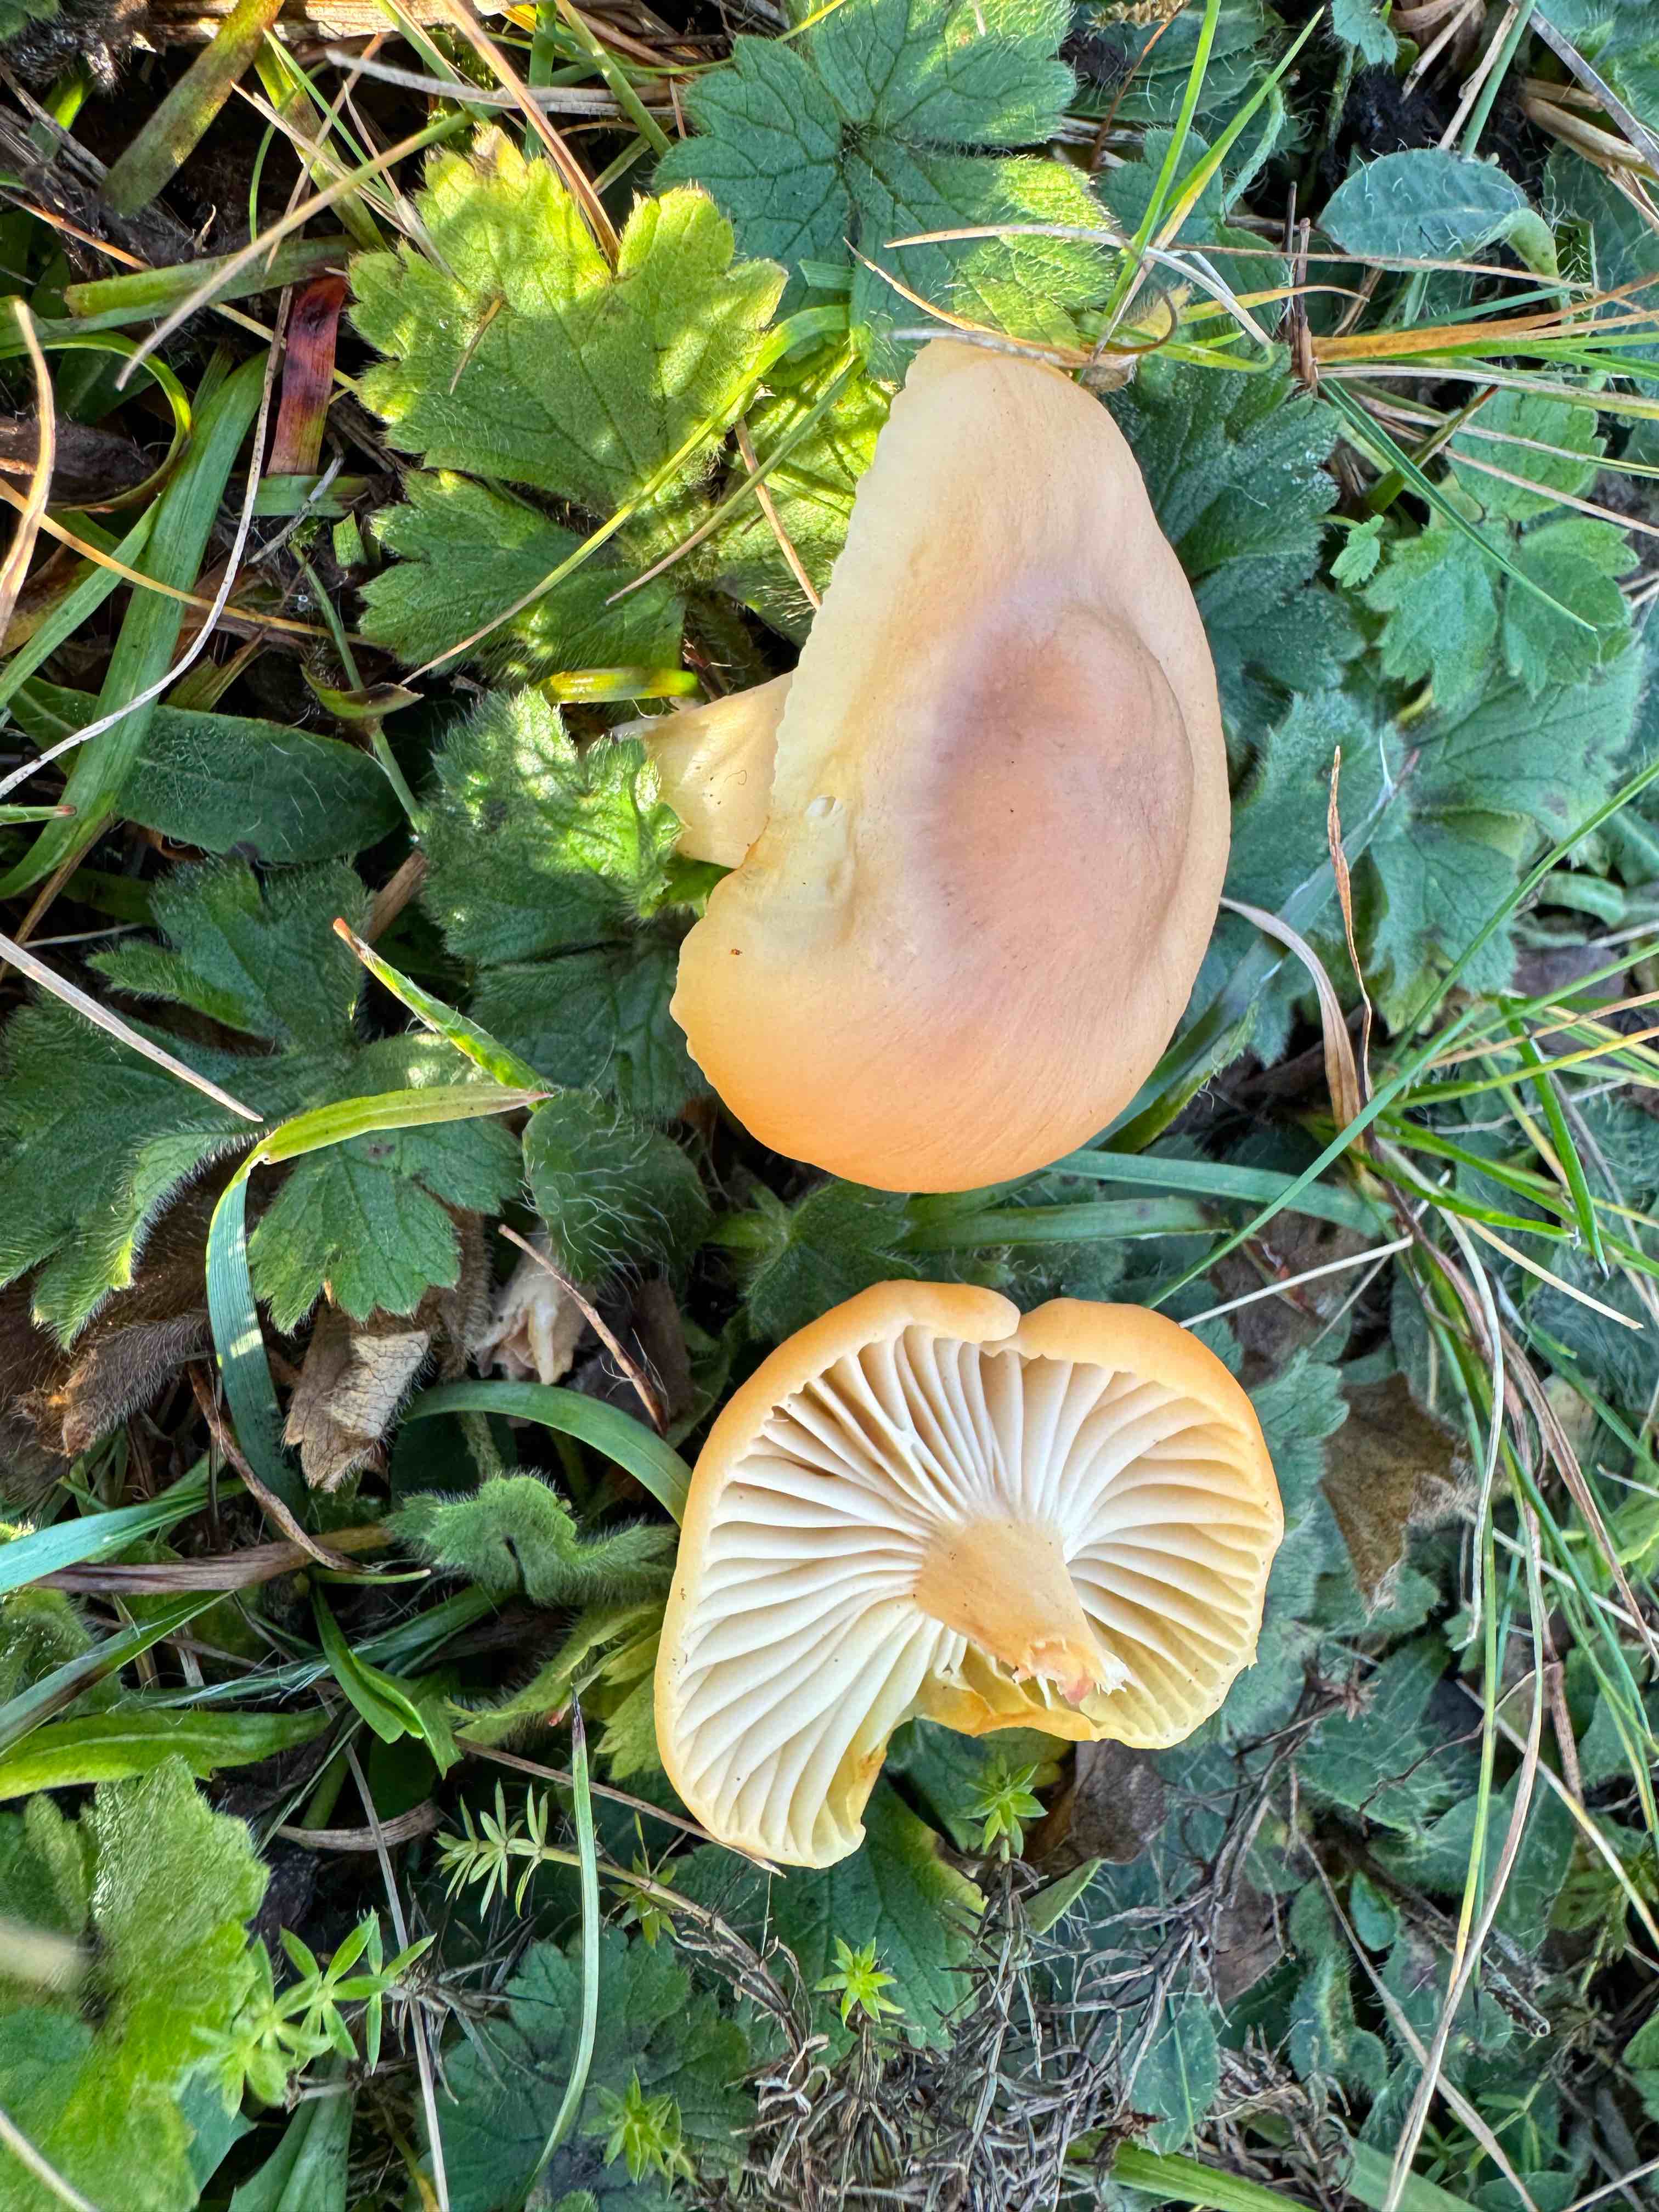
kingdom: Fungi
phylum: Basidiomycota
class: Agaricomycetes
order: Agaricales
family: Hygrophoraceae
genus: Cuphophyllus
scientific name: Cuphophyllus pratensis
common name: eng-vokshat
